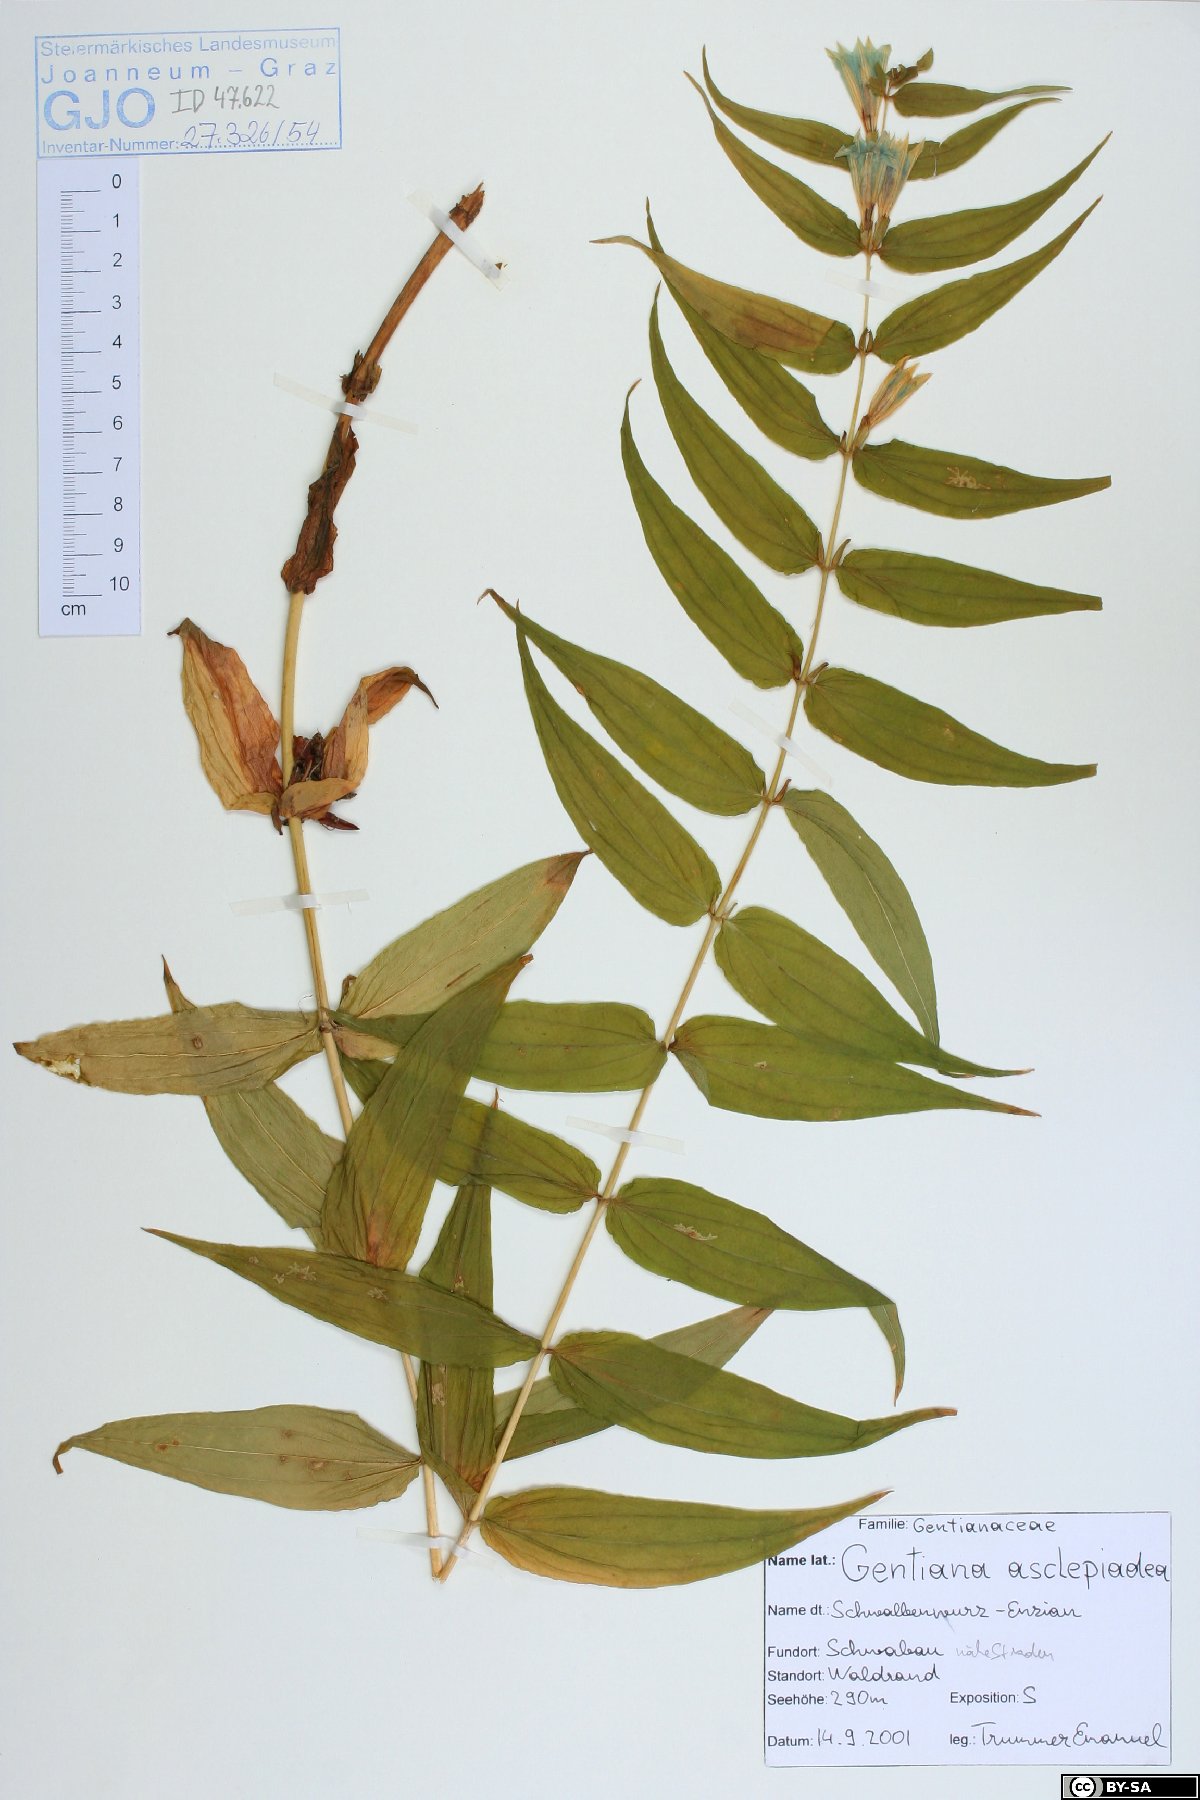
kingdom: Plantae
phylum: Tracheophyta
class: Magnoliopsida
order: Gentianales
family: Gentianaceae
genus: Gentiana
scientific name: Gentiana asclepiadea
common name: Willow gentian
